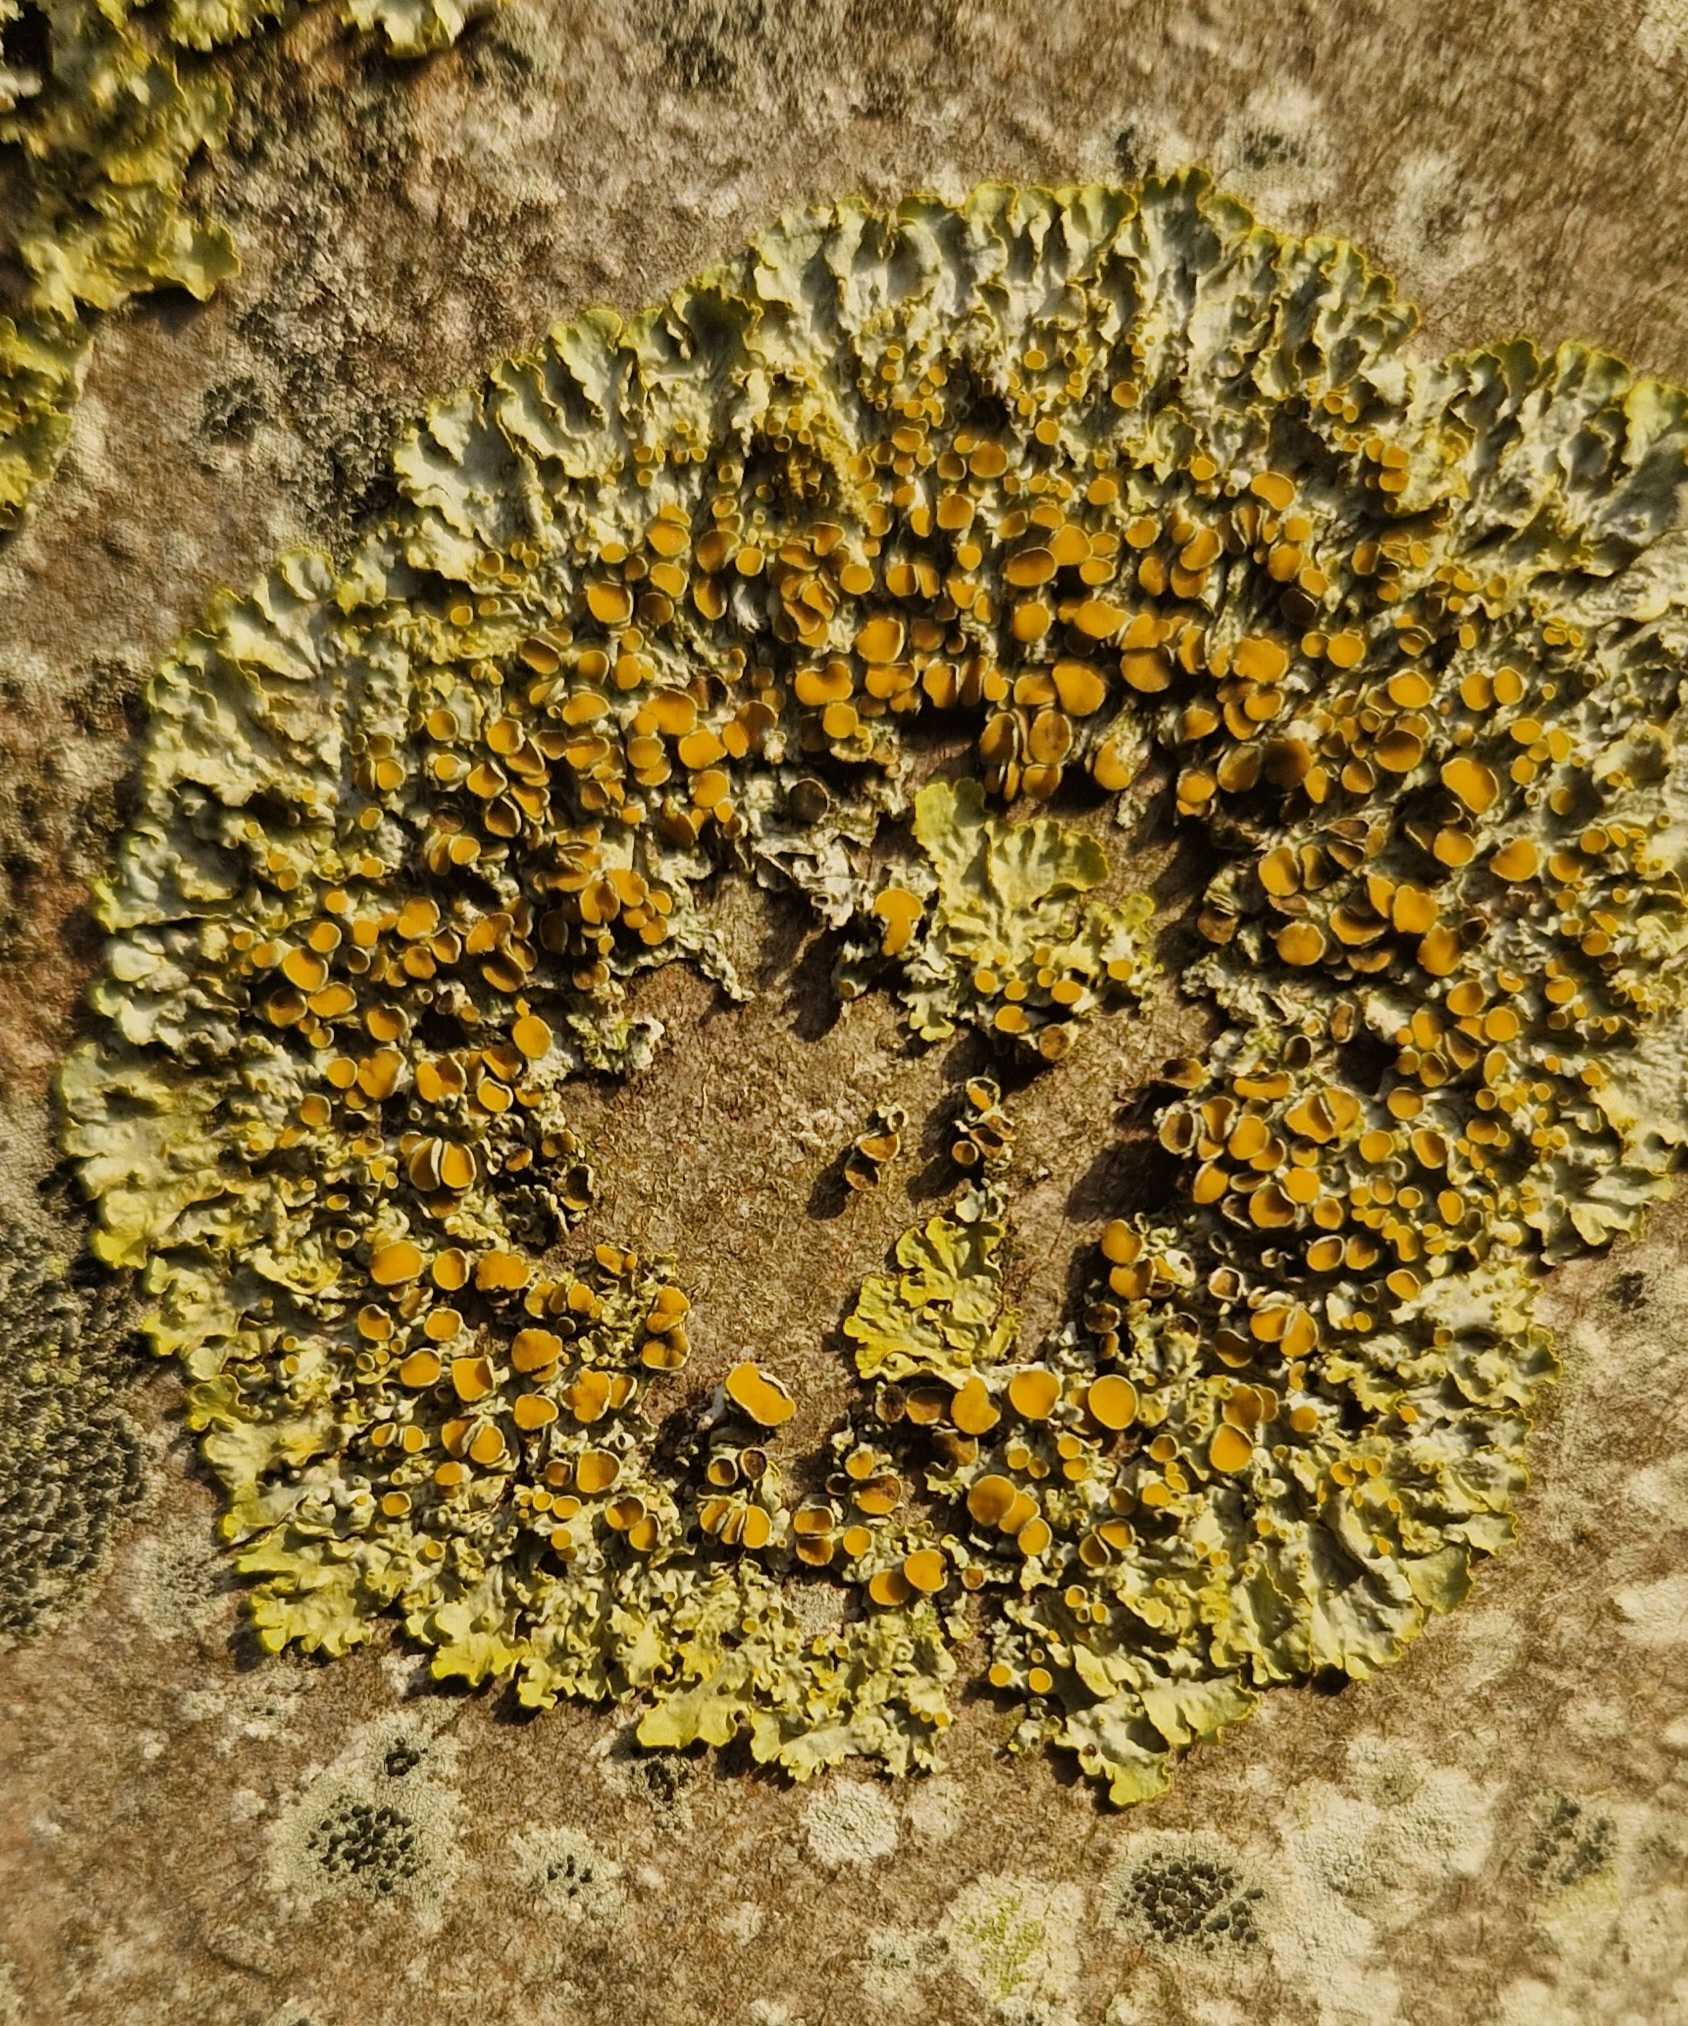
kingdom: Fungi
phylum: Ascomycota
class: Lecanoromycetes
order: Teloschistales
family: Teloschistaceae
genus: Xanthoria
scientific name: Xanthoria parietina
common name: Almindelig væggelav
